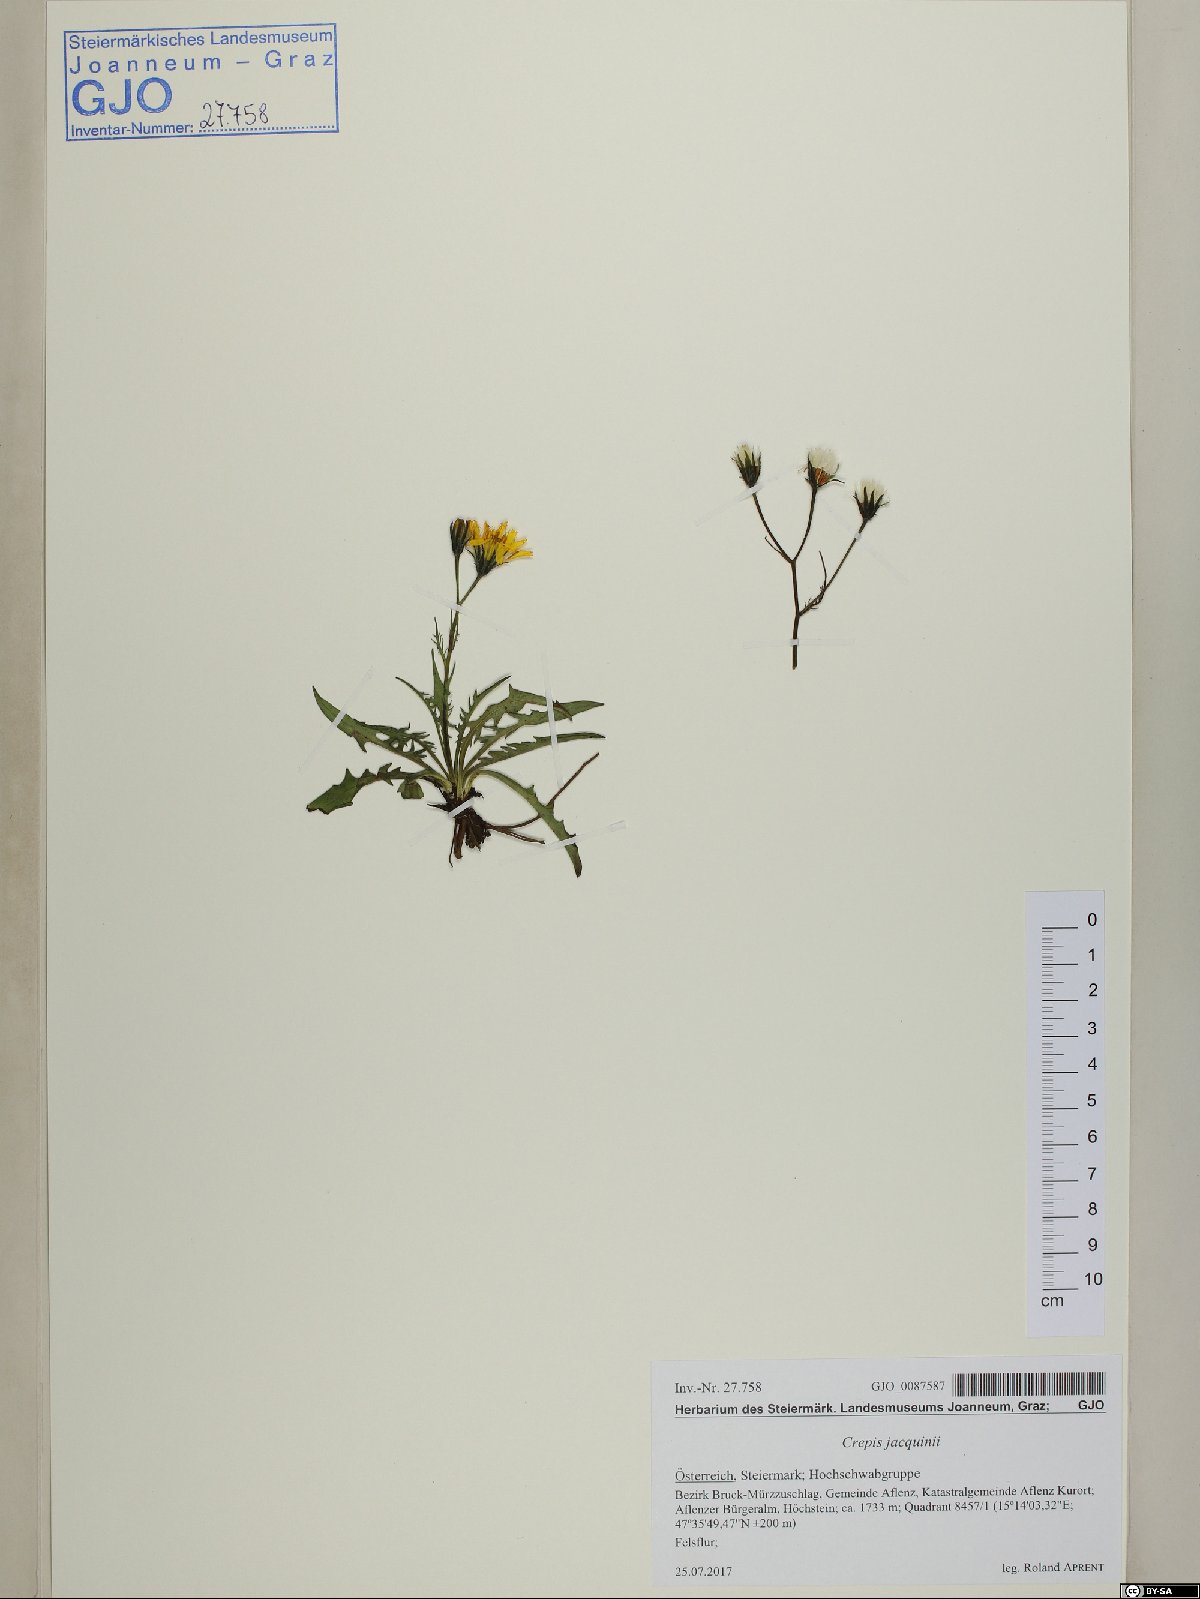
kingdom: Plantae
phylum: Tracheophyta
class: Magnoliopsida
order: Asterales
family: Asteraceae
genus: Crepis
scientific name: Crepis jacquinii
